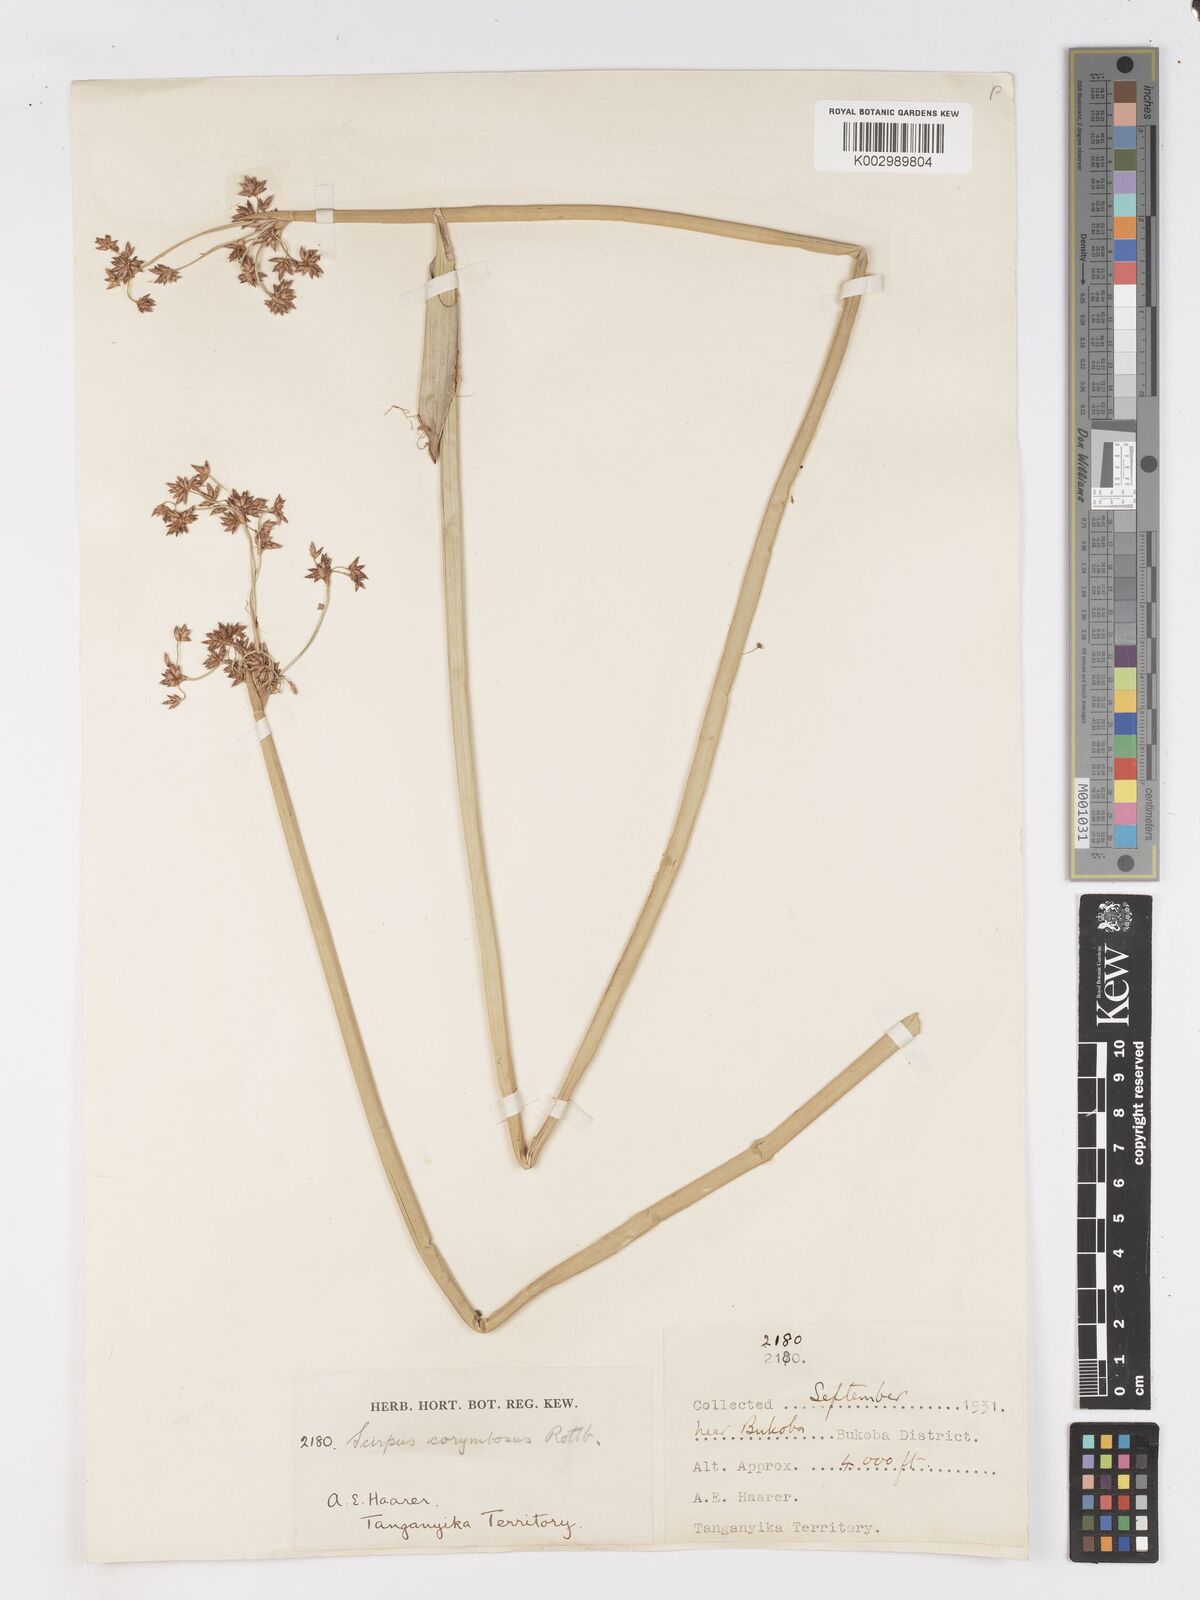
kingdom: Plantae
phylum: Tracheophyta
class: Liliopsida
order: Poales
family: Cyperaceae
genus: Schoenoplectiella
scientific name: Schoenoplectiella brachyceras
